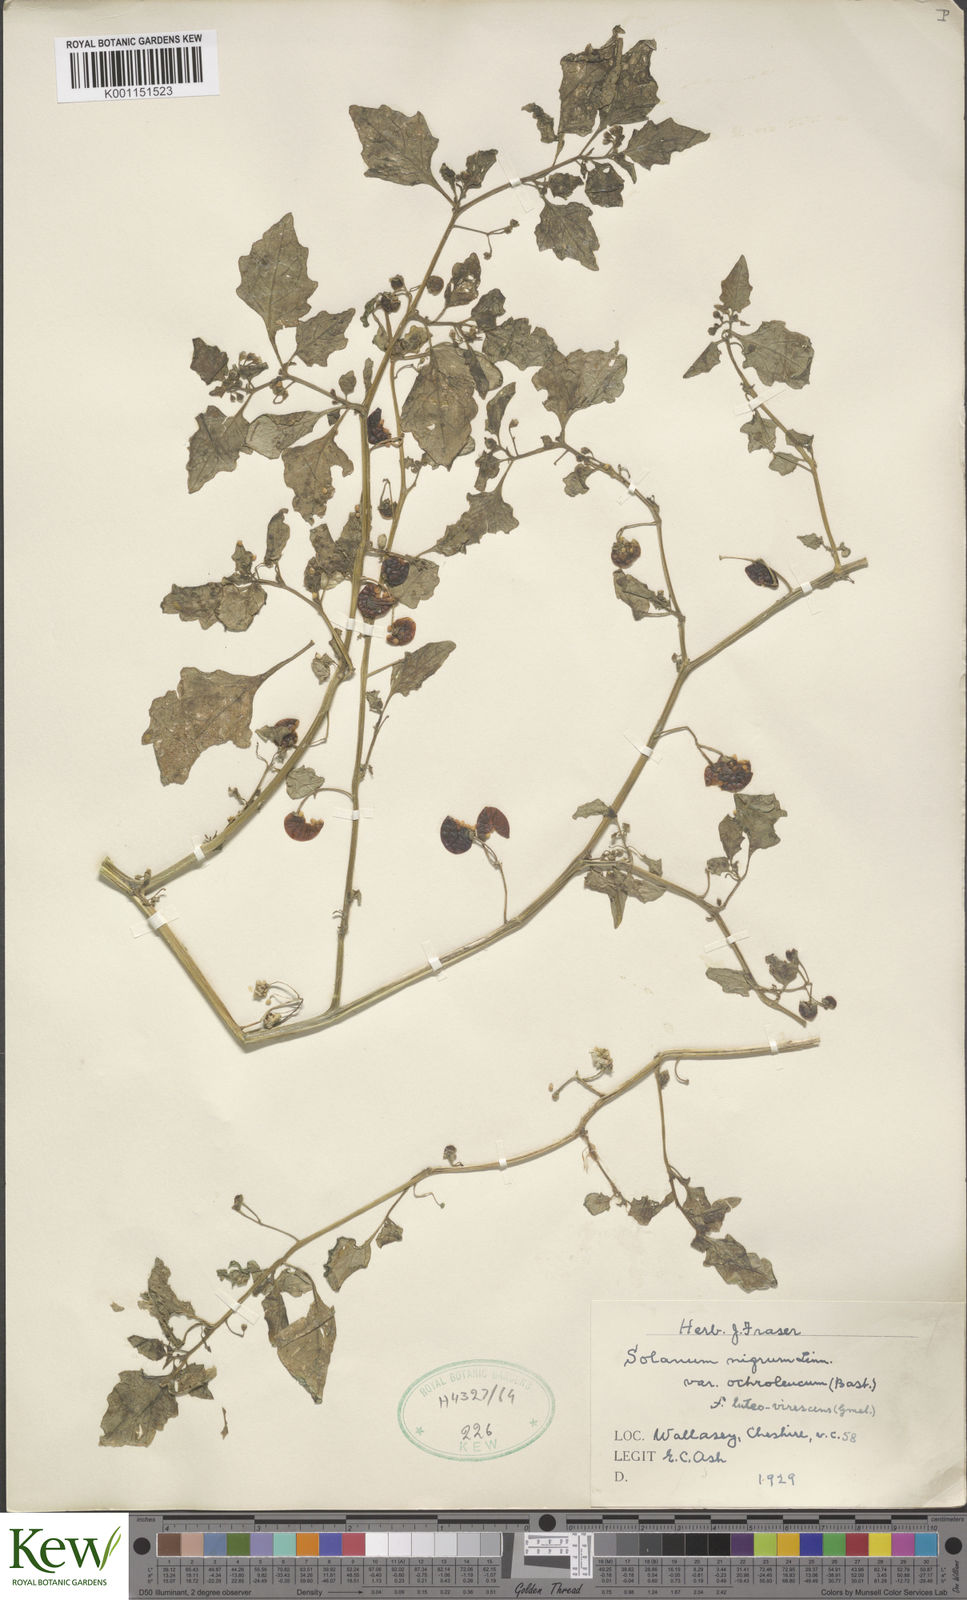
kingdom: Plantae
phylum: Tracheophyta
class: Magnoliopsida
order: Solanales
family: Solanaceae
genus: Solanum
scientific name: Solanum nigrum
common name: Black nightshade
